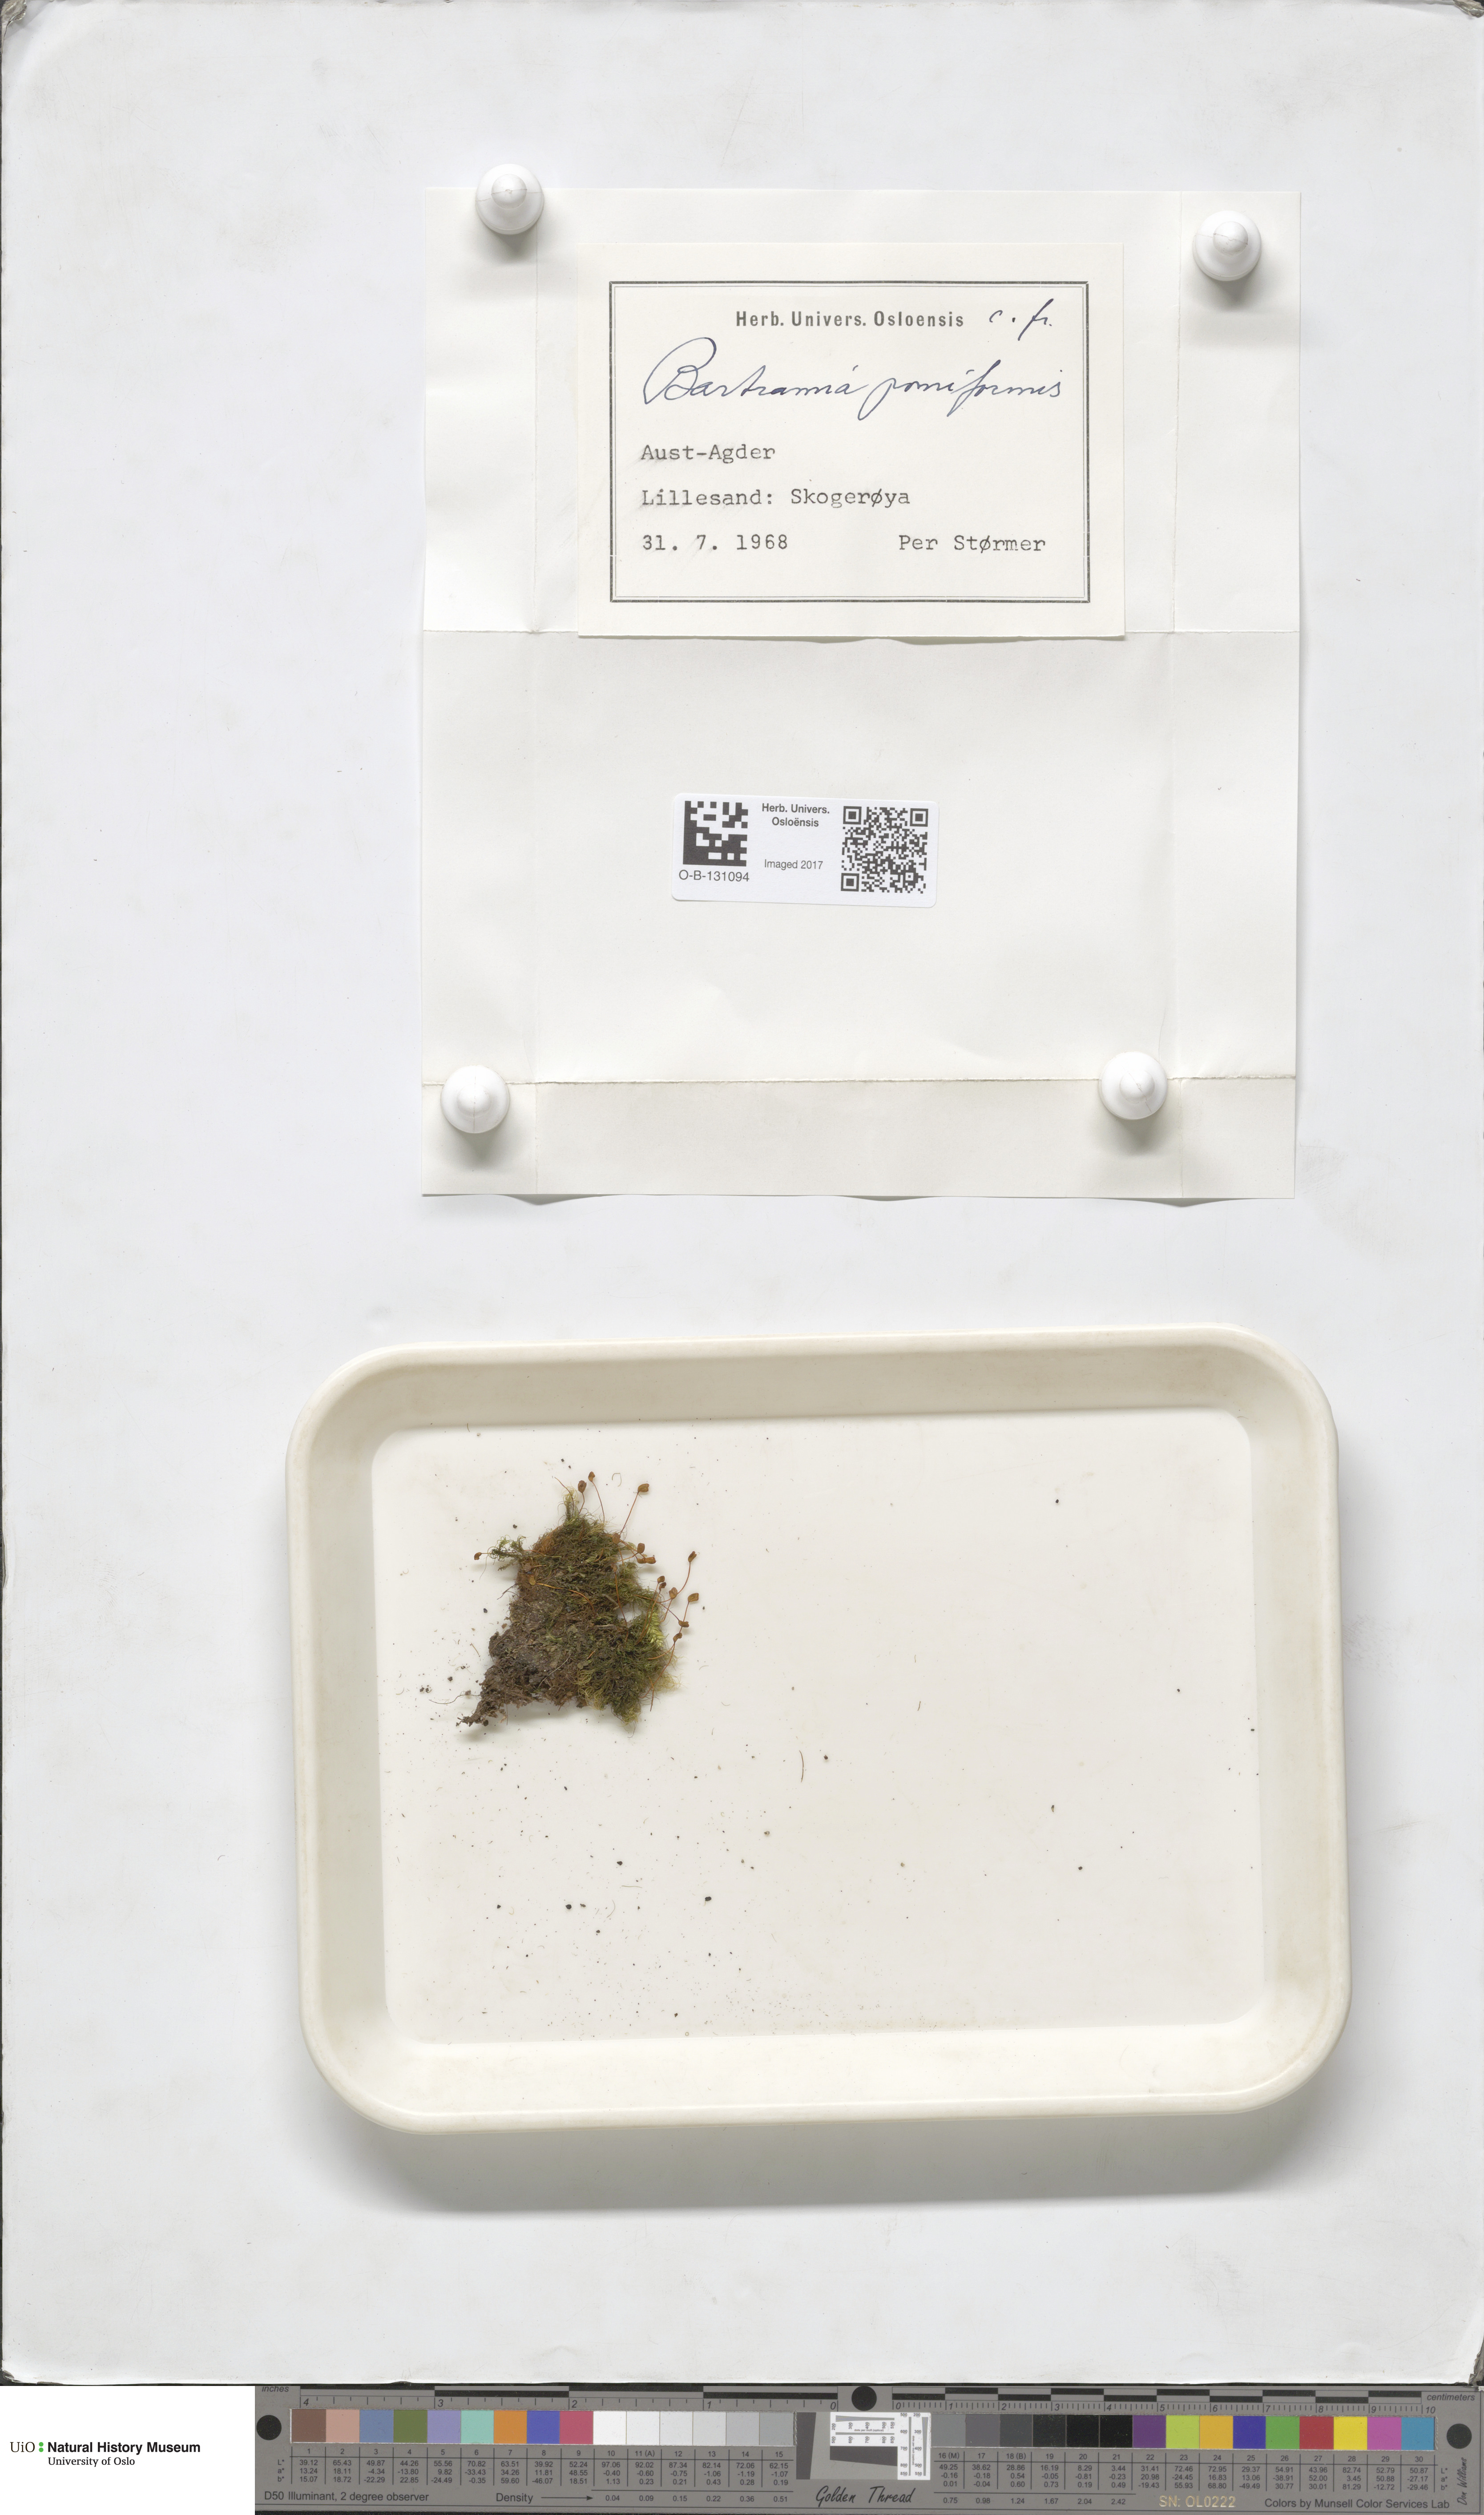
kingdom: Plantae
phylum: Bryophyta
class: Bryopsida
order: Bartramiales
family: Bartramiaceae
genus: Bartramia
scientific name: Bartramia pomiformis
